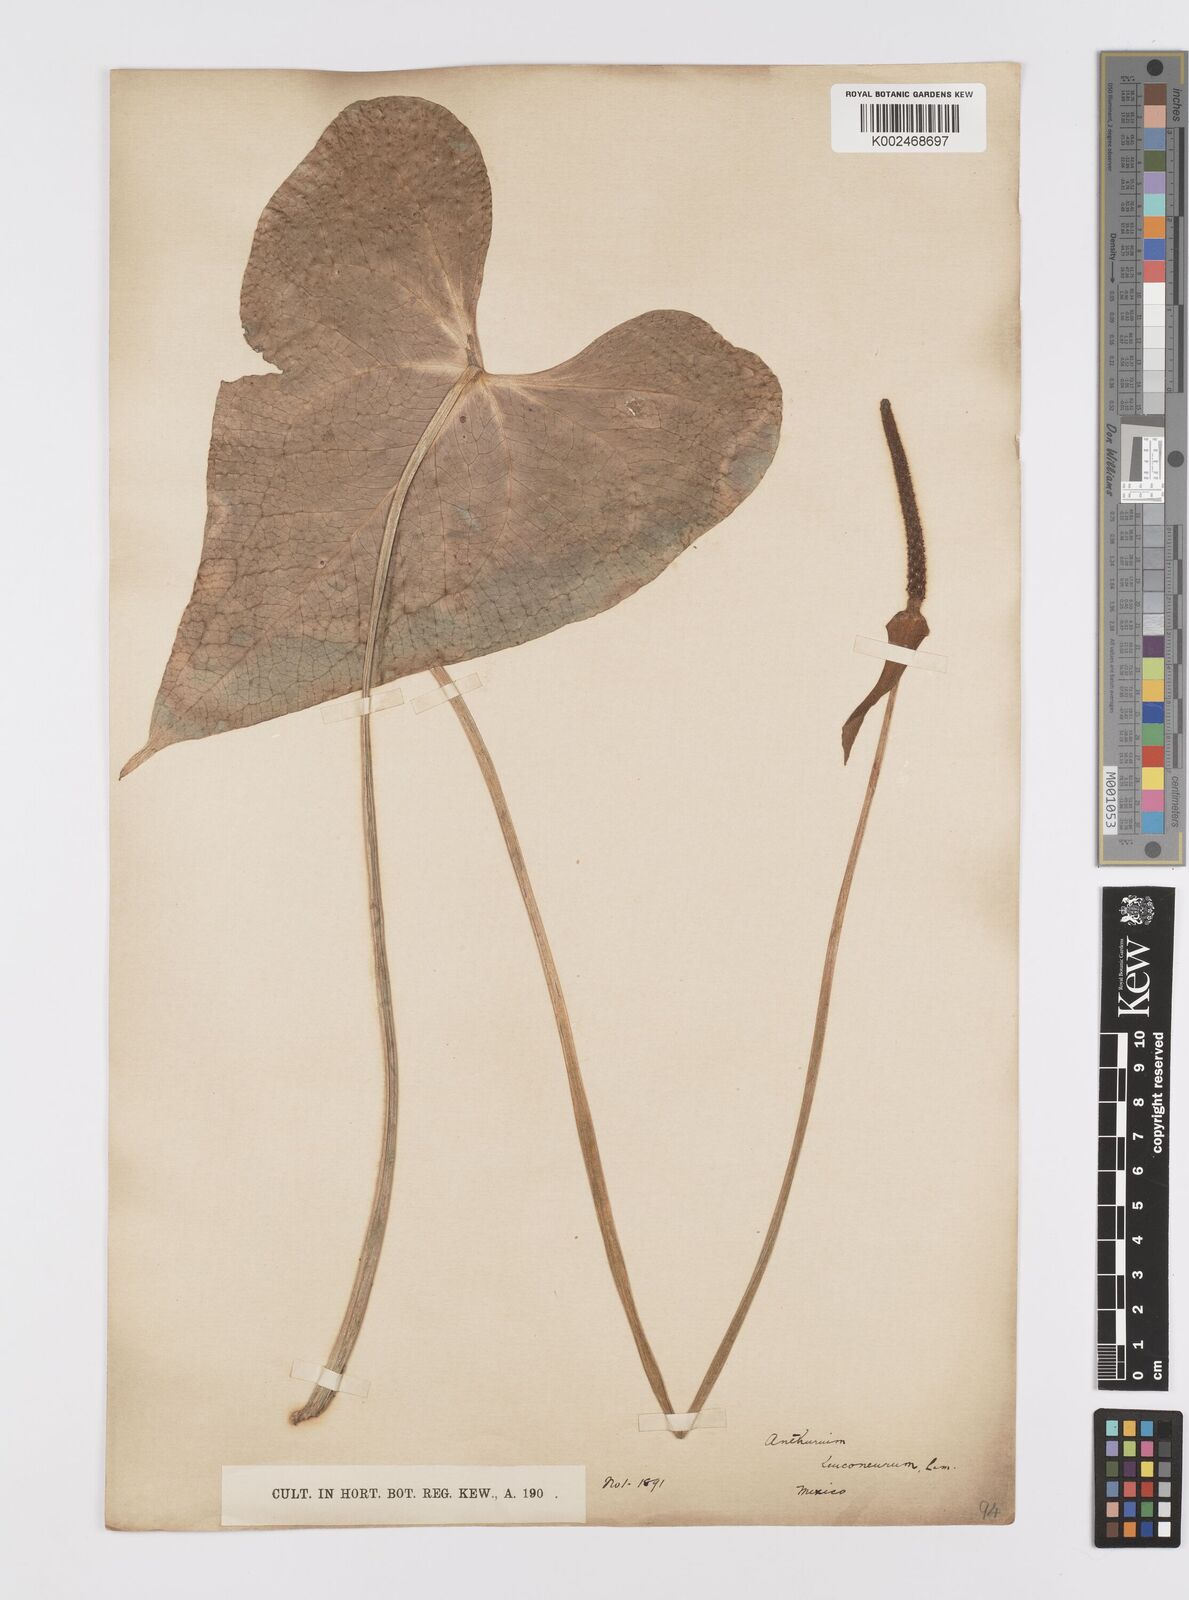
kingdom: Plantae
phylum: Tracheophyta
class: Liliopsida
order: Alismatales
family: Araceae
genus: Anthurium
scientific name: Anthurium leuconeurum
